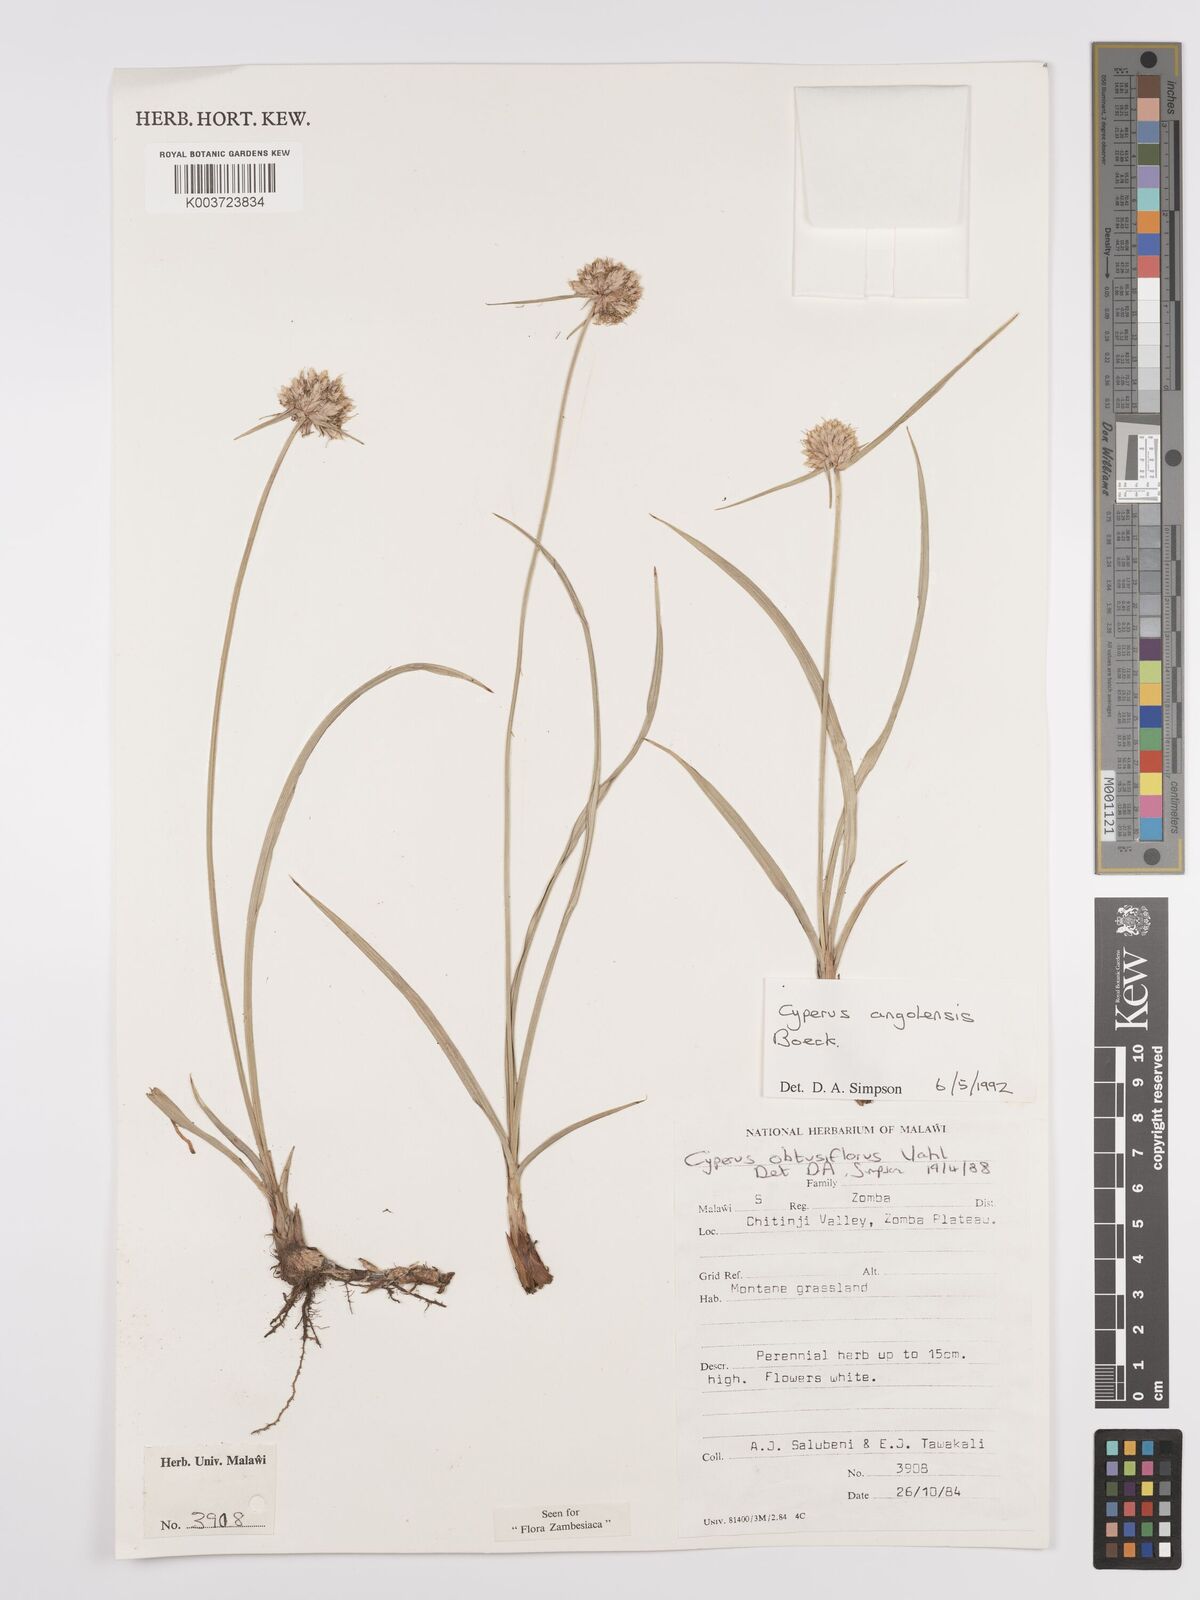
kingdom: Plantae
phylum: Tracheophyta
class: Liliopsida
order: Poales
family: Cyperaceae
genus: Cyperus
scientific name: Cyperus angolensis
